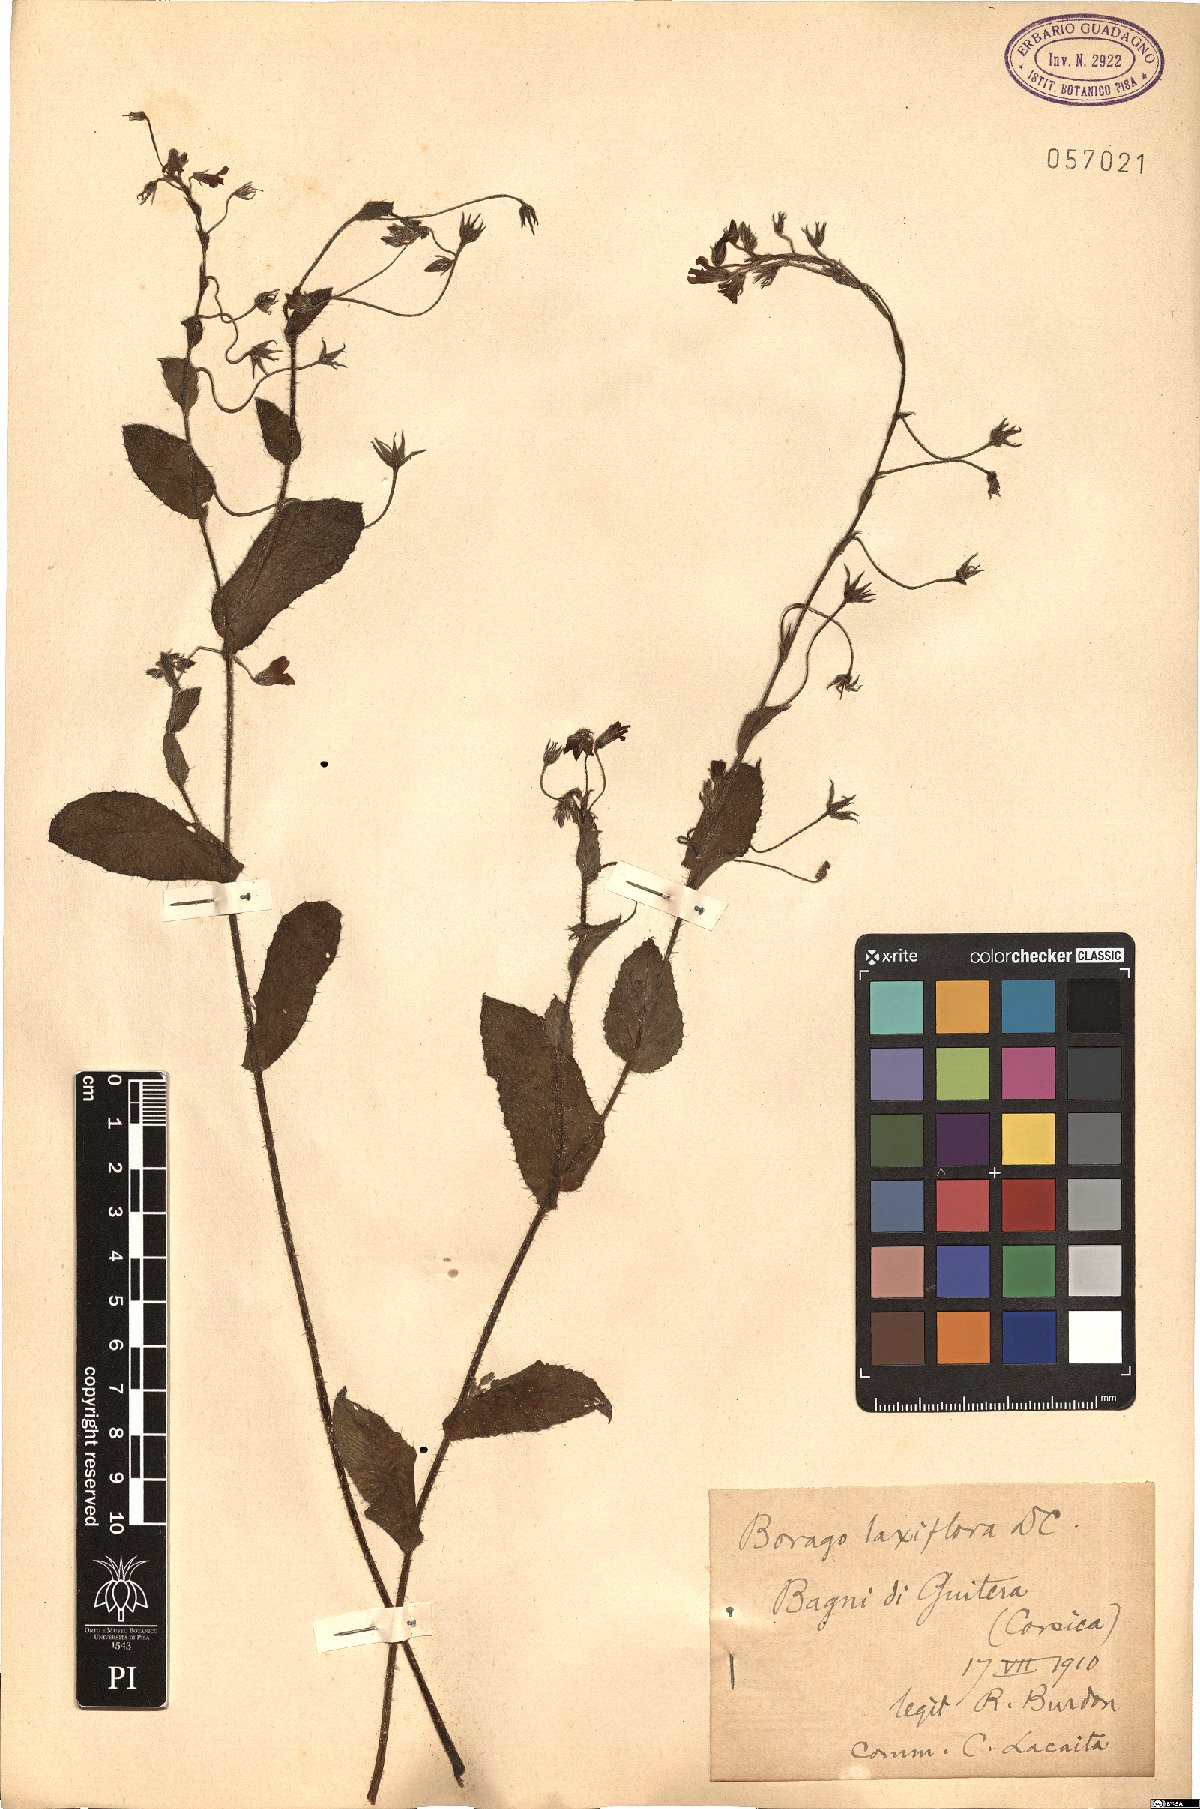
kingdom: Plantae
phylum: Tracheophyta
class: Magnoliopsida
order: Boraginales
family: Boraginaceae
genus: Borago
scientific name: Borago pygmaea
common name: Slender borage
